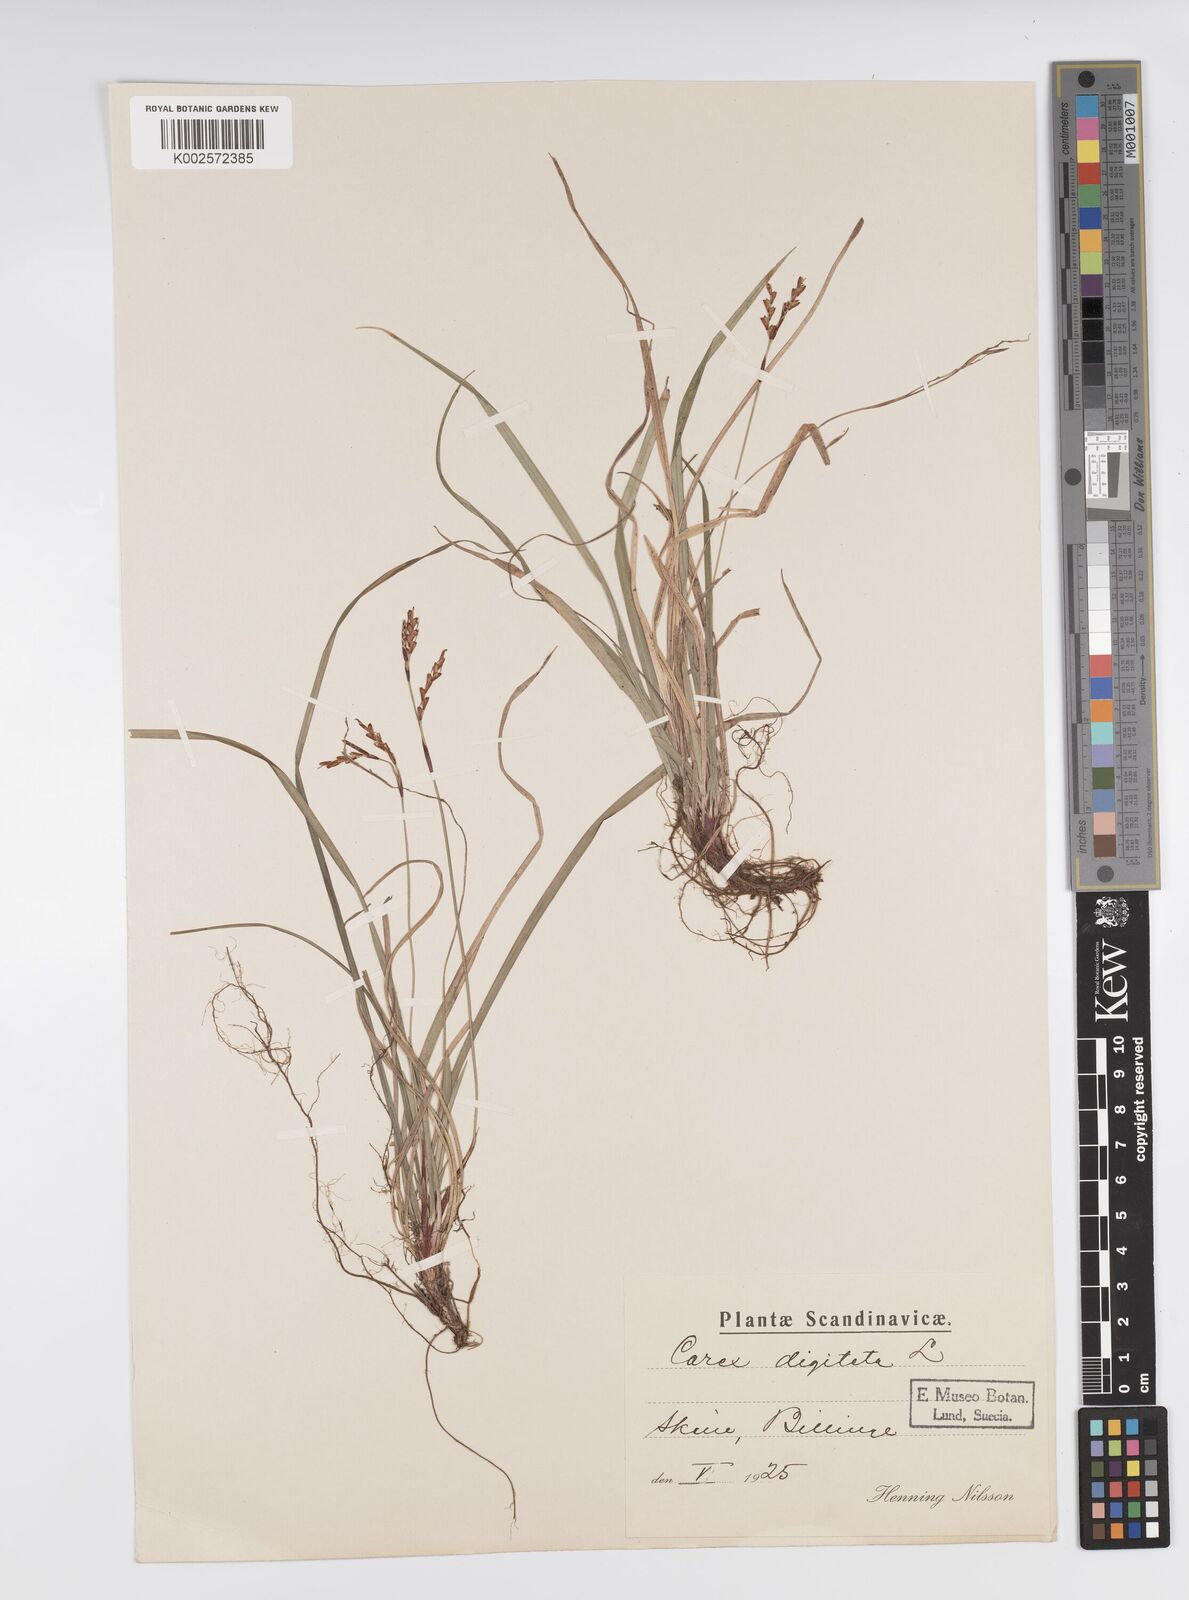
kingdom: Plantae
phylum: Tracheophyta
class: Liliopsida
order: Poales
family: Cyperaceae
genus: Carex
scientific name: Carex digitata
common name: Fingered sedge
